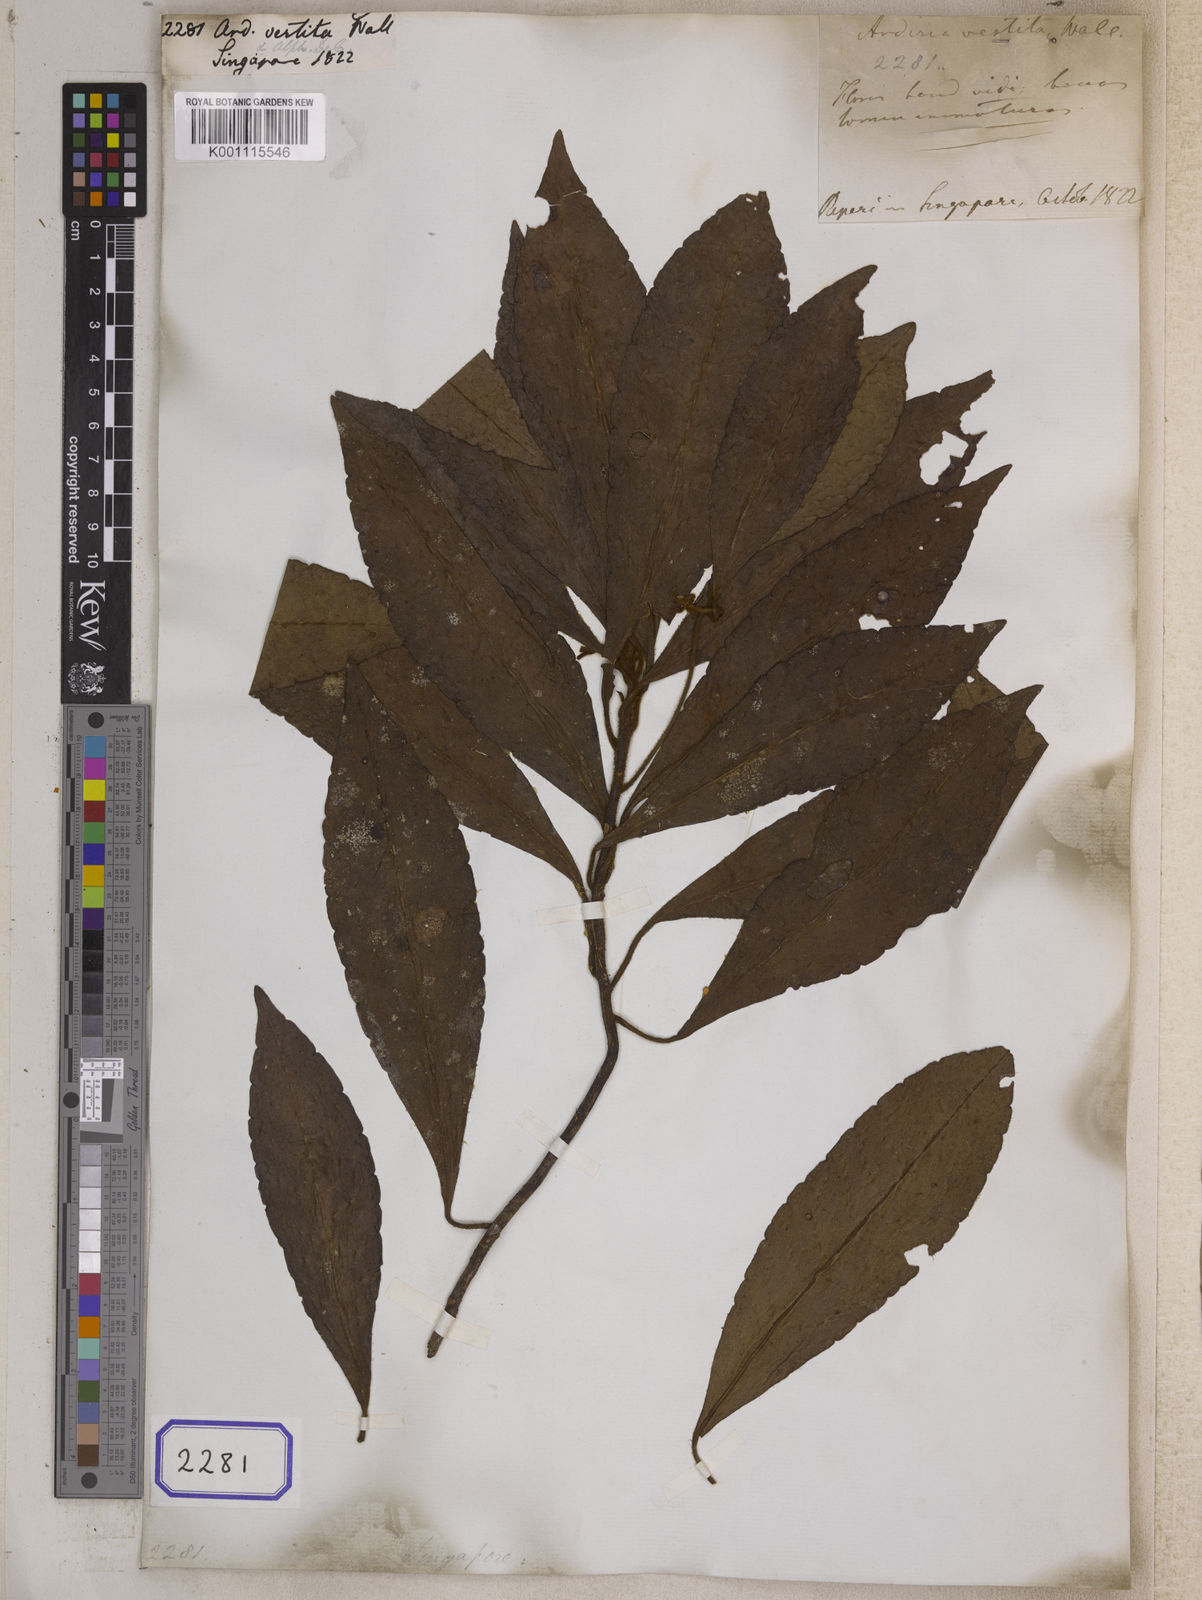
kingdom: Plantae
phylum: Tracheophyta
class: Magnoliopsida
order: Ericales
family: Primulaceae
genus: Ardisia
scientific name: Ardisia villosa
